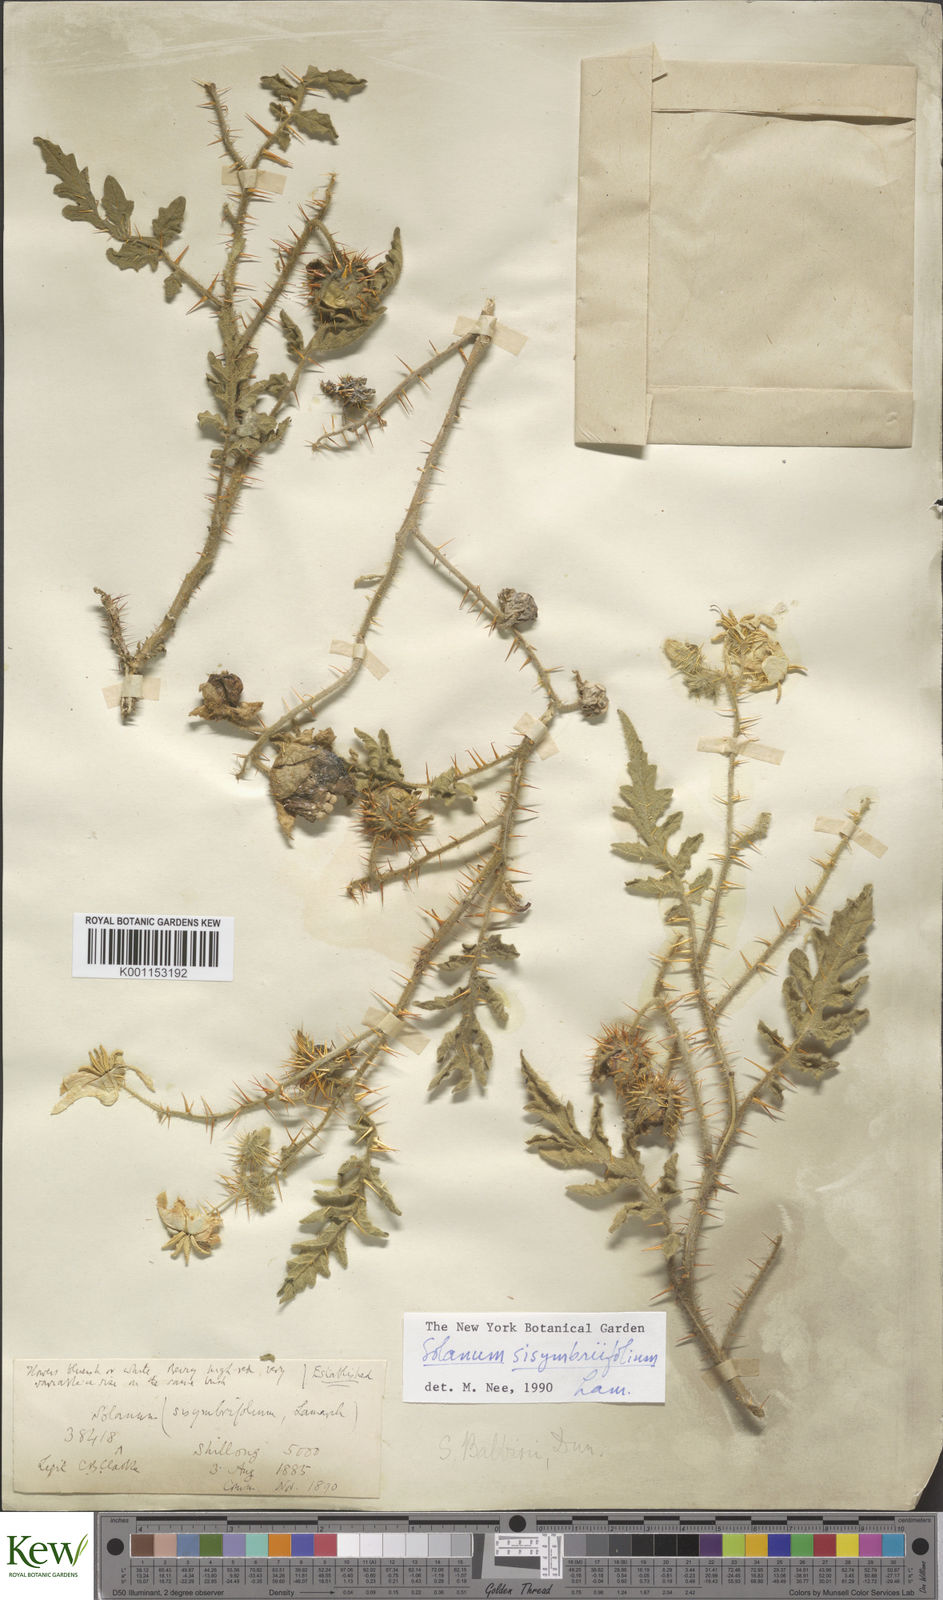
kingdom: Plantae
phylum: Tracheophyta
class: Magnoliopsida
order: Solanales
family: Solanaceae
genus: Solanum
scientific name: Solanum sisymbriifolium
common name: Red buffalo-bur
